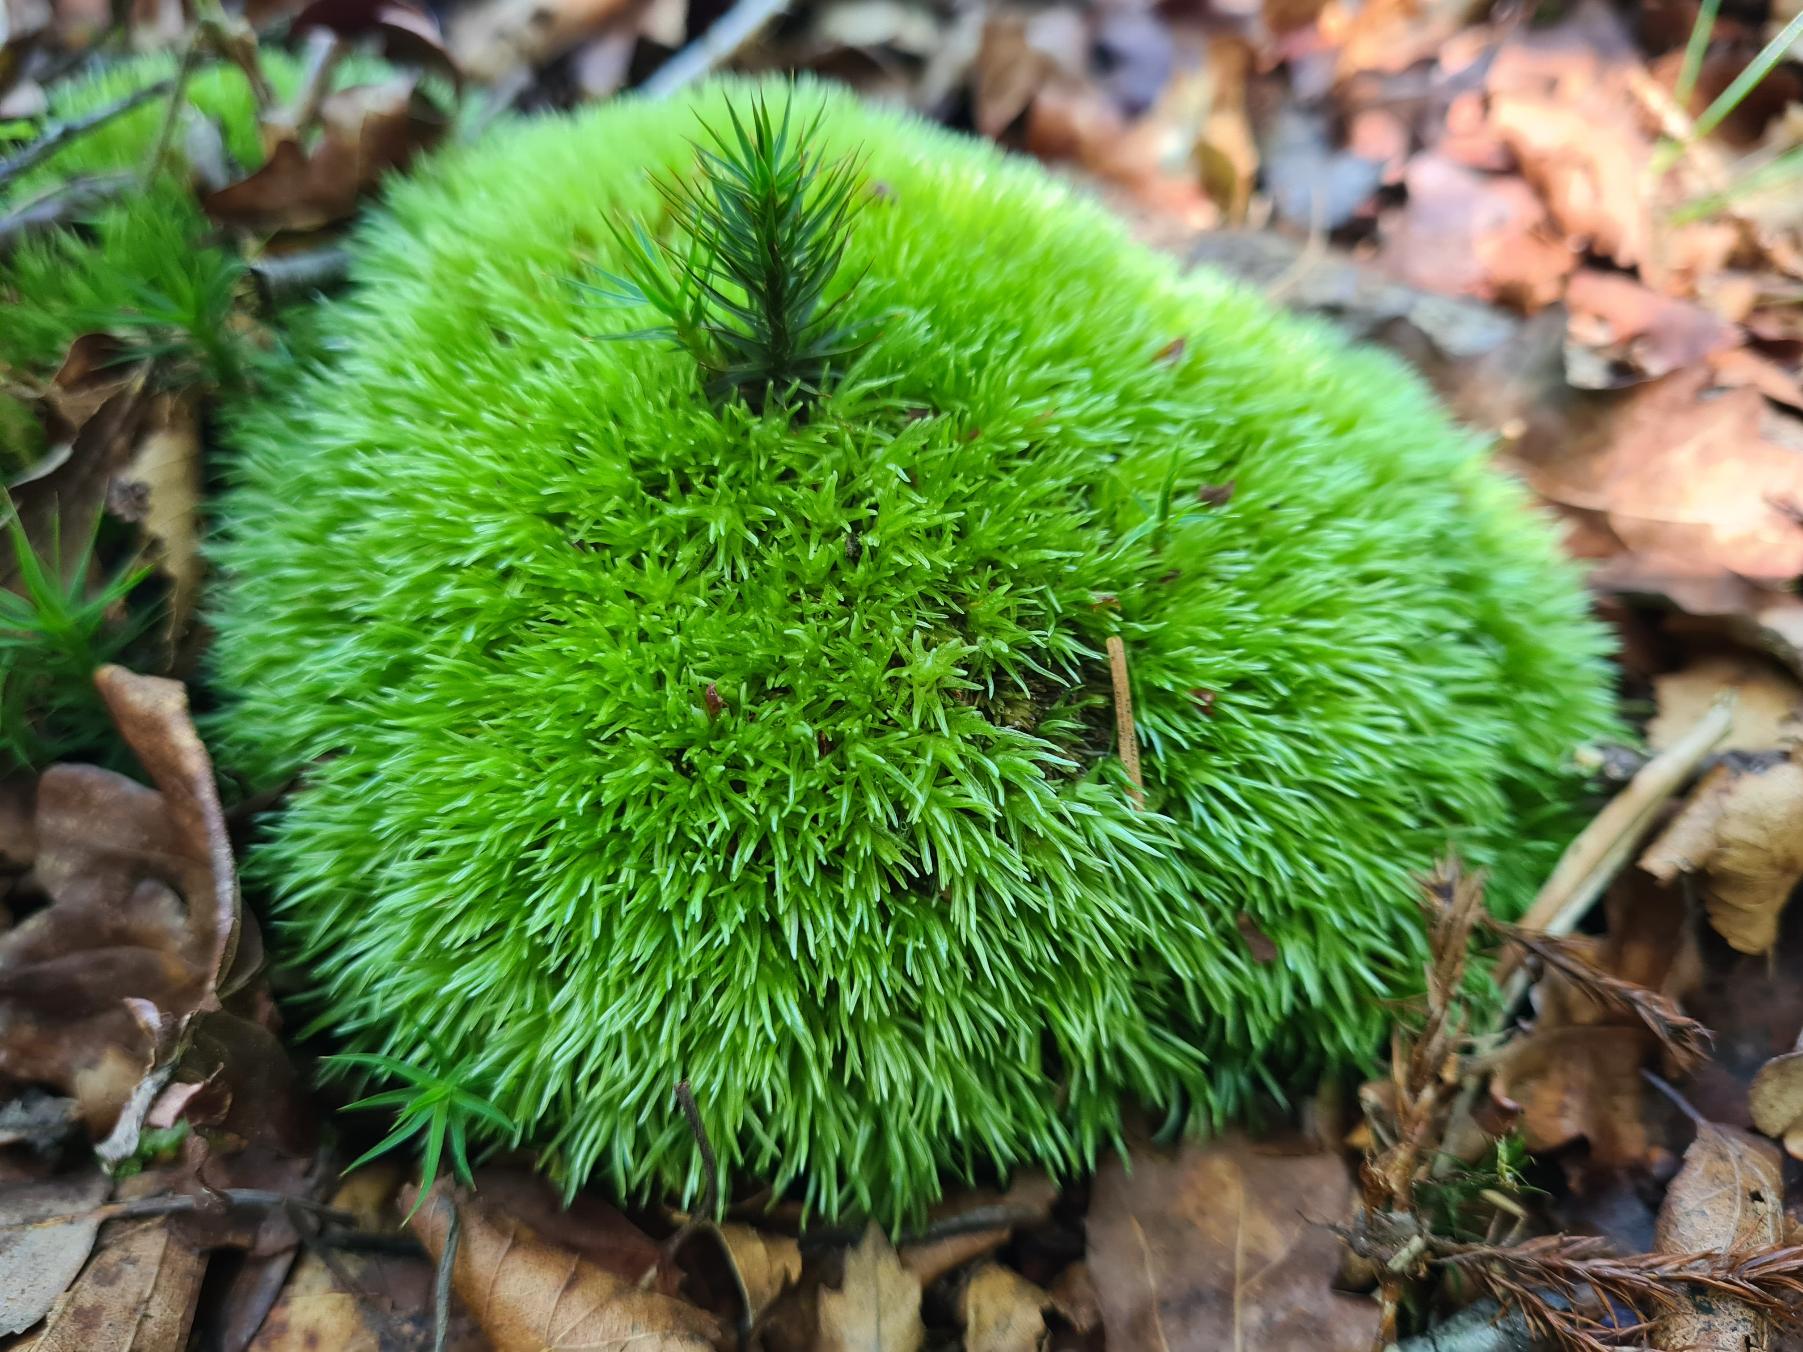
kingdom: Plantae
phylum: Bryophyta
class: Bryopsida
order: Dicranales
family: Leucobryaceae
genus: Leucobryum
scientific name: Leucobryum glaucum
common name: Almindelig hvidmos
